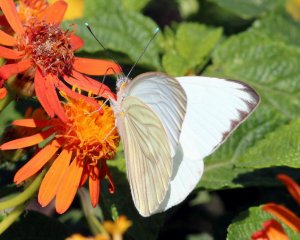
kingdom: Animalia
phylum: Arthropoda
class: Insecta
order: Lepidoptera
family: Pieridae
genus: Ascia
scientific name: Ascia monuste
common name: Great Southern White
